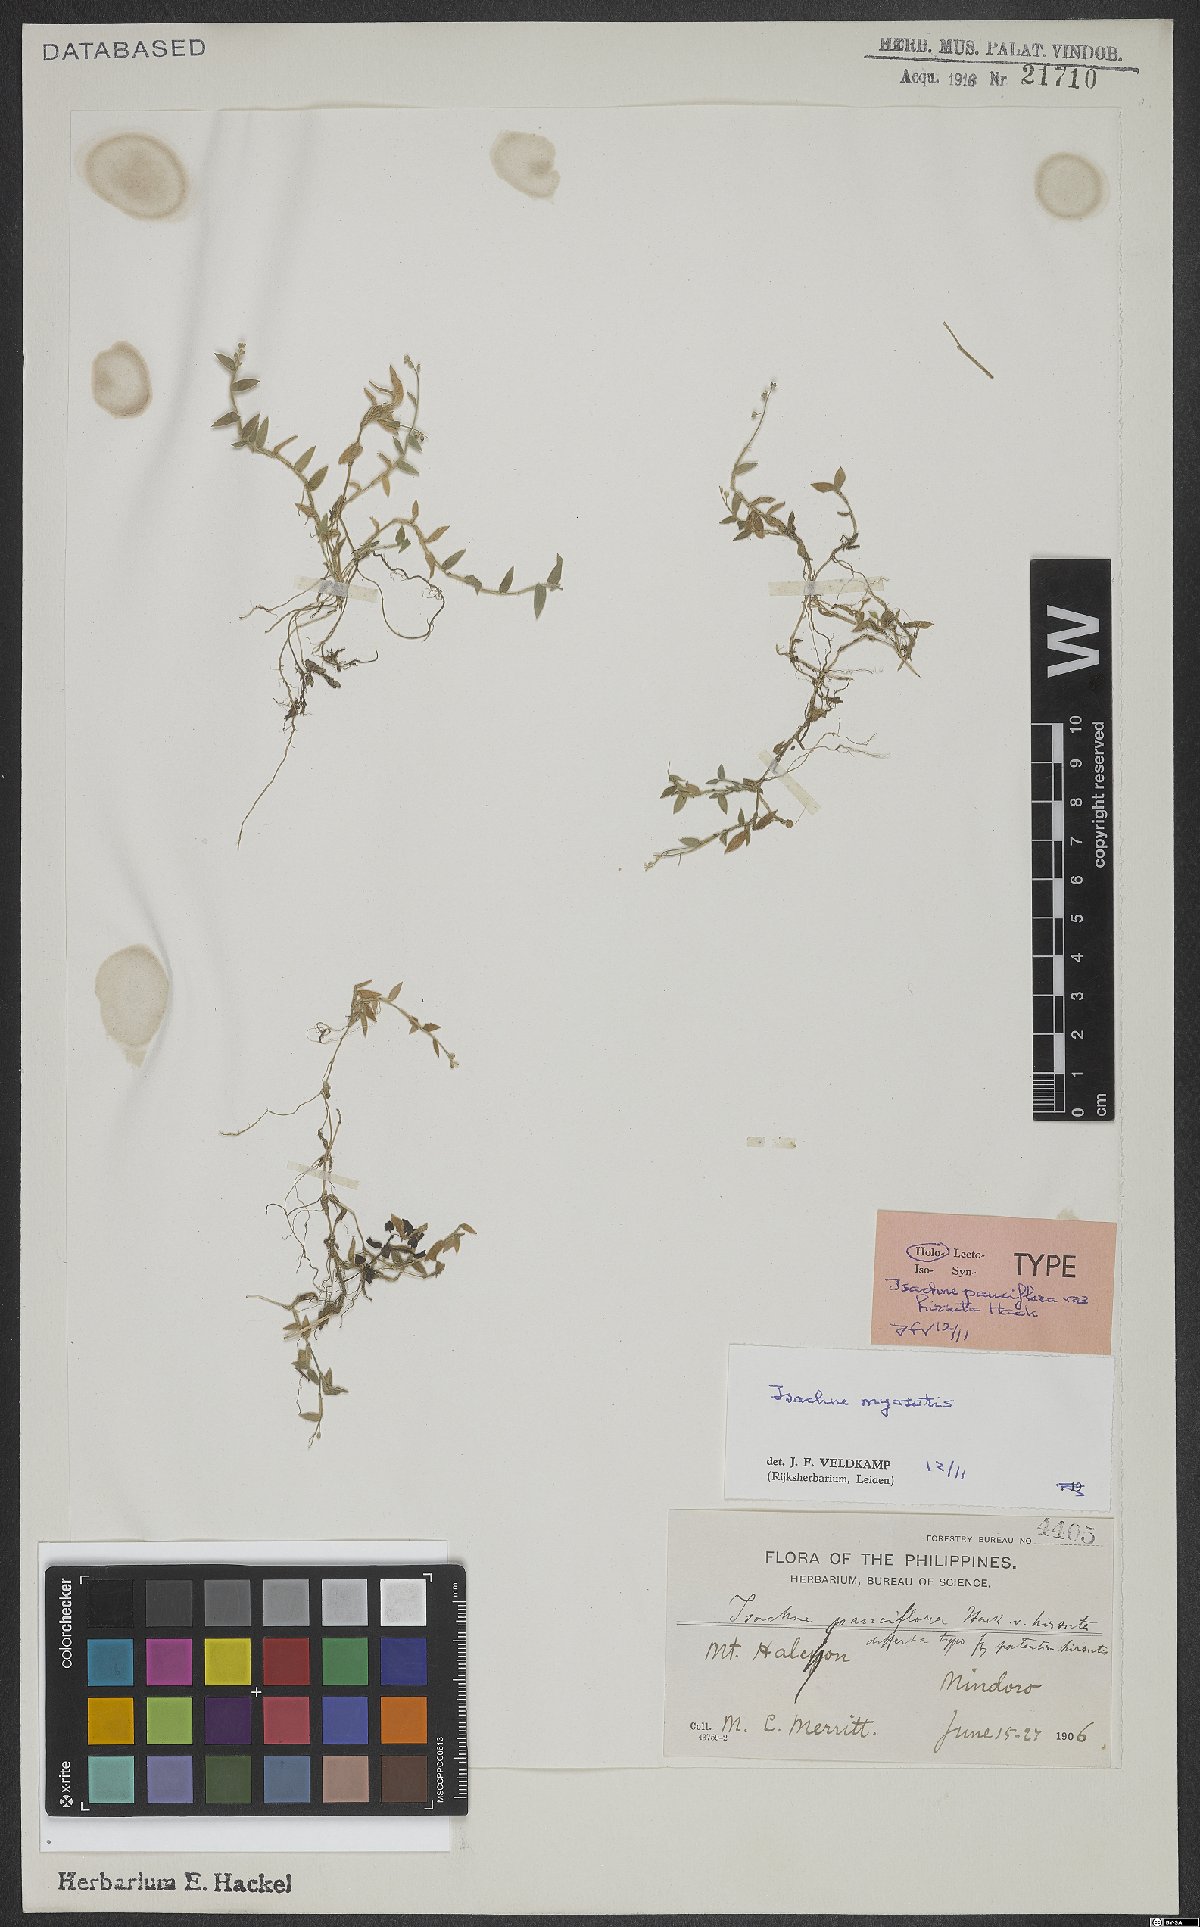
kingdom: Plantae
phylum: Tracheophyta
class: Liliopsida
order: Poales
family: Poaceae
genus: Isachne
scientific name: Isachne myosotis
